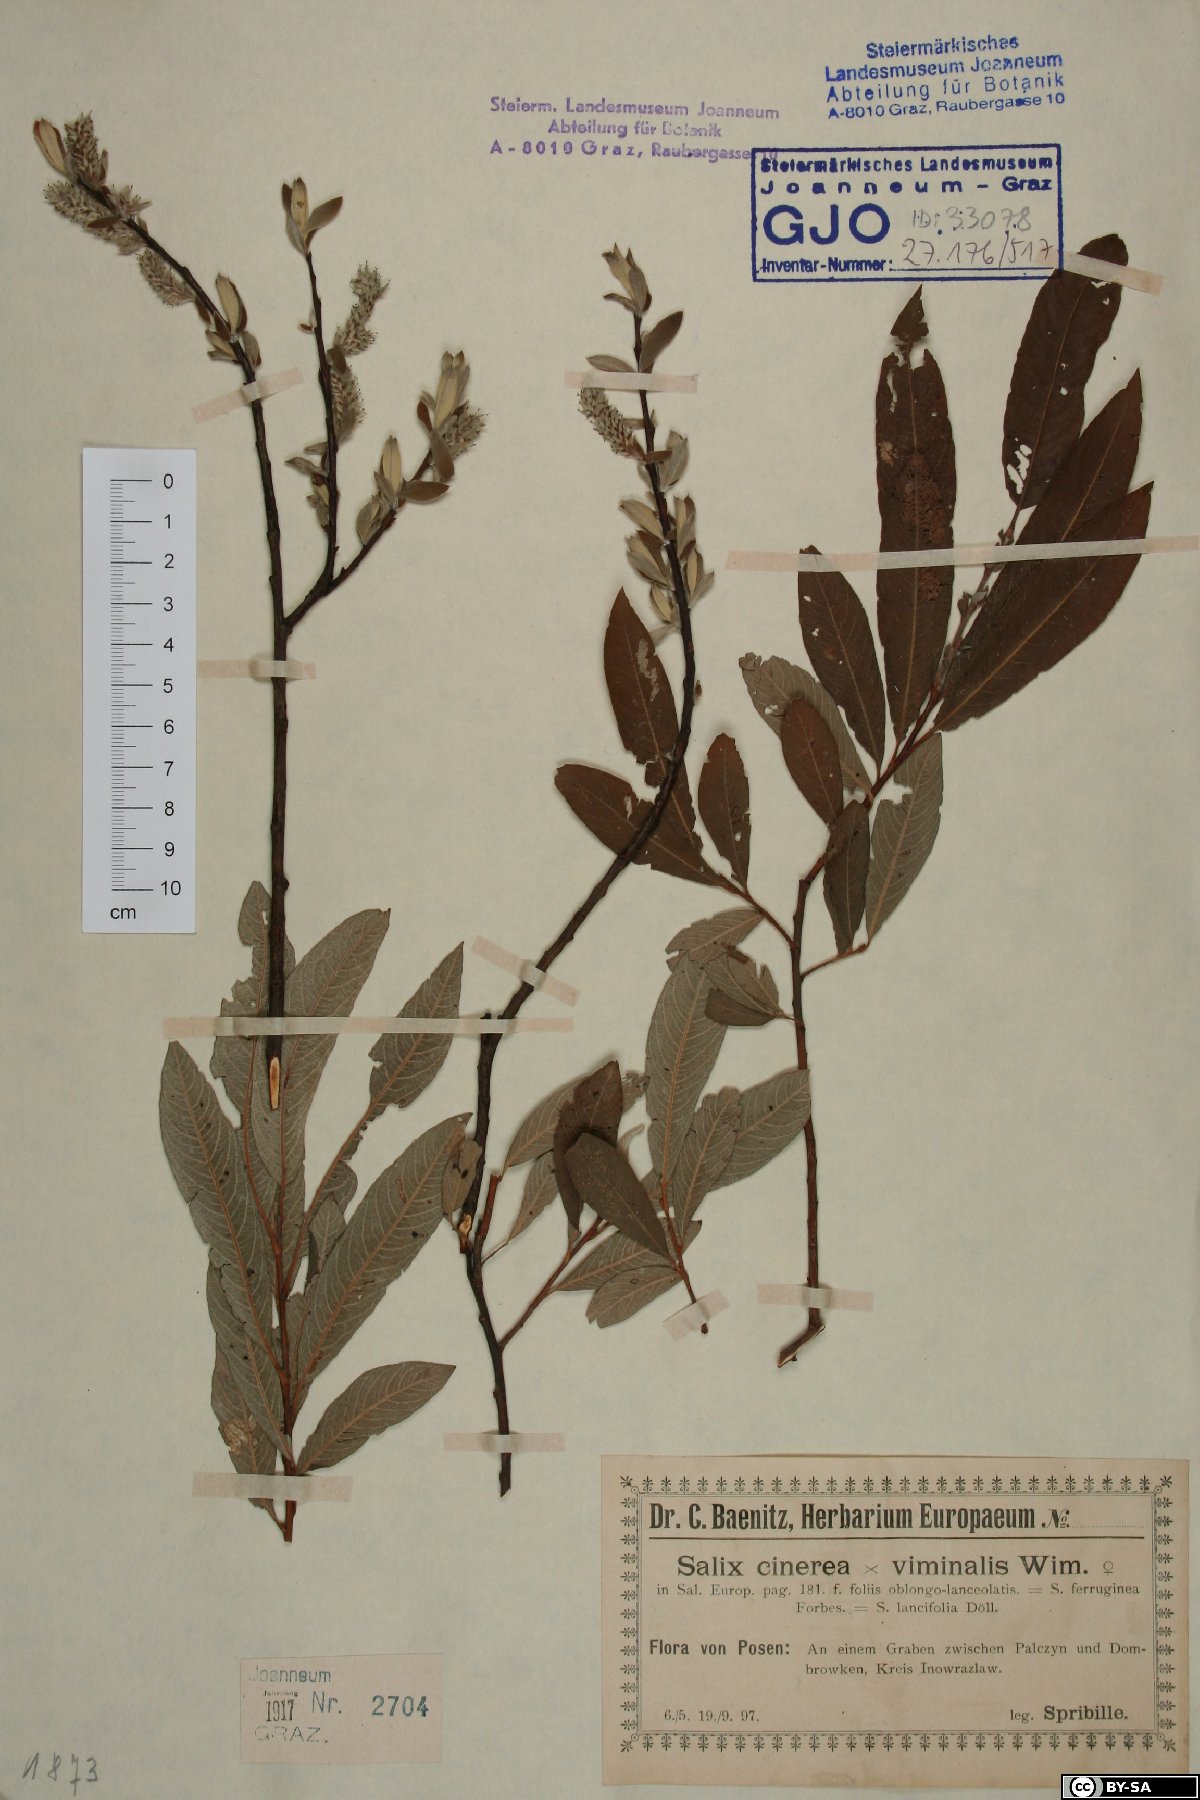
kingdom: Plantae
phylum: Tracheophyta
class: Magnoliopsida
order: Malpighiales
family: Salicaceae
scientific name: Salicaceae
